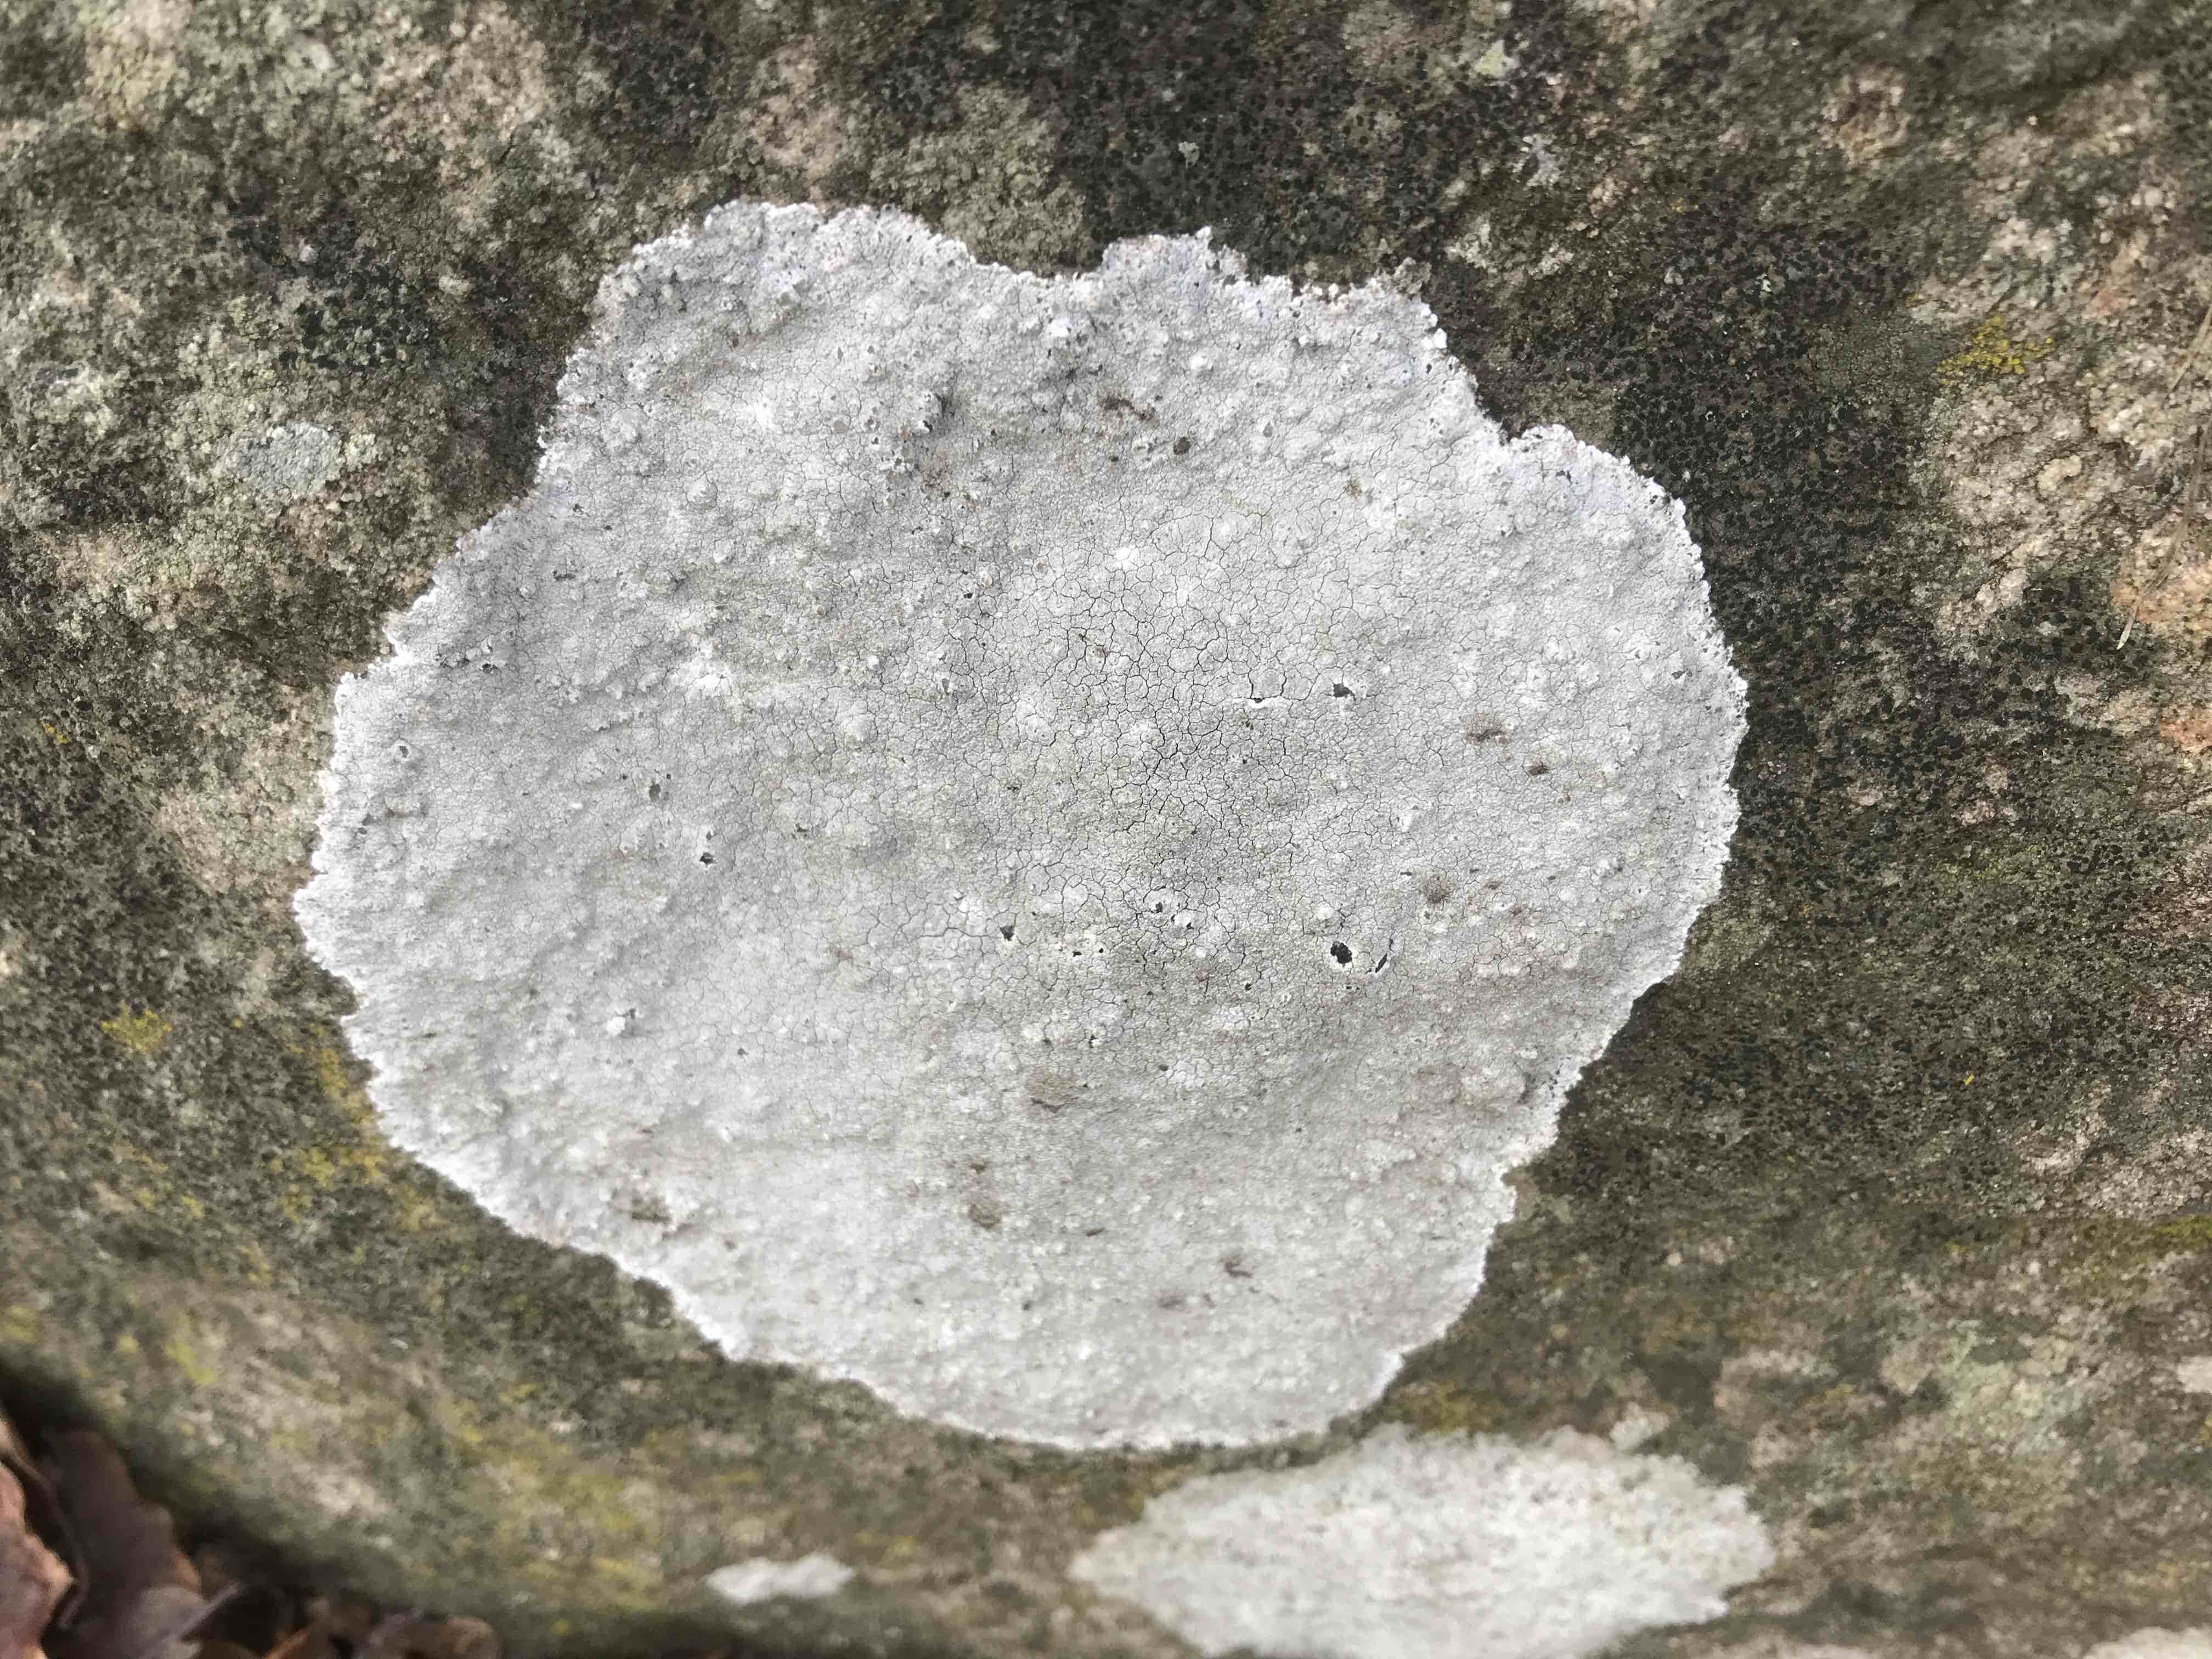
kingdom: Fungi
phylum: Ascomycota
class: Lecanoromycetes
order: Lecanorales
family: Lecanoraceae
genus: Glaucomaria
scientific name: Glaucomaria rupicola
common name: stengærde-kantskivelav
